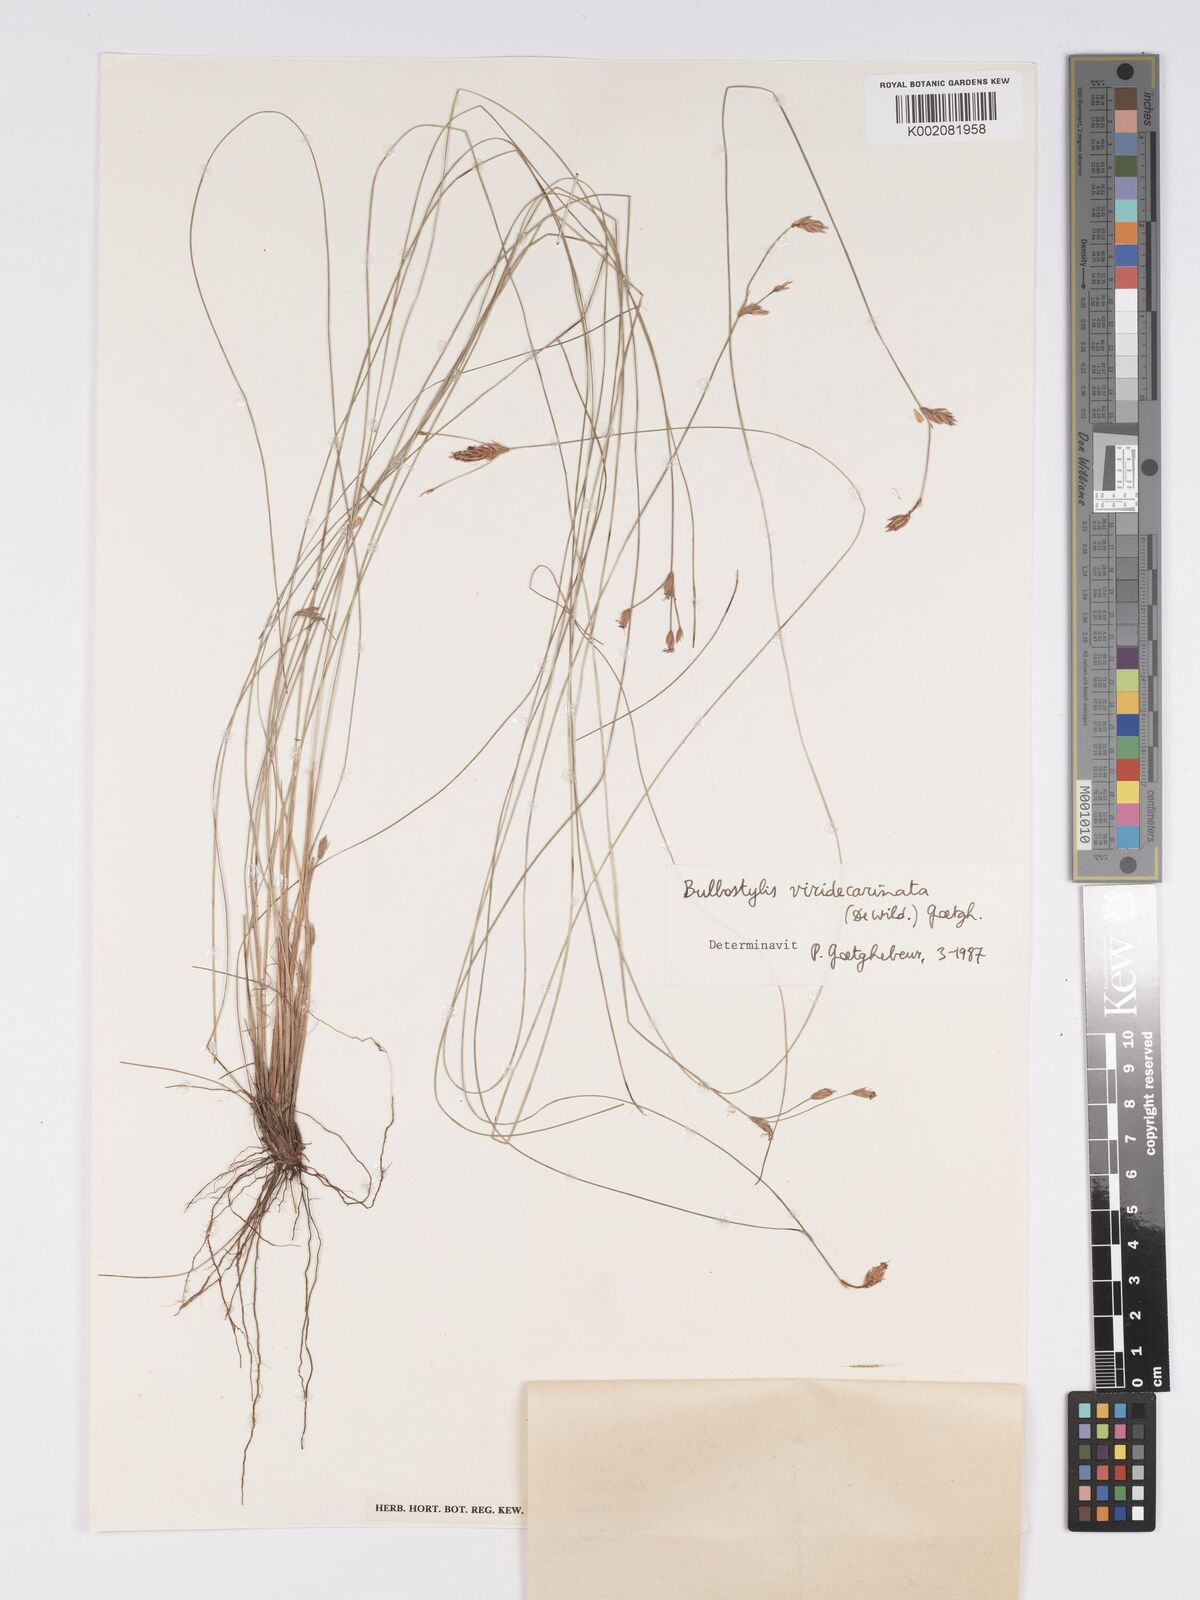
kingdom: Plantae
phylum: Tracheophyta
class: Liliopsida
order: Poales
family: Cyperaceae
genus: Bulbostylis
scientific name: Bulbostylis viridecarinata
